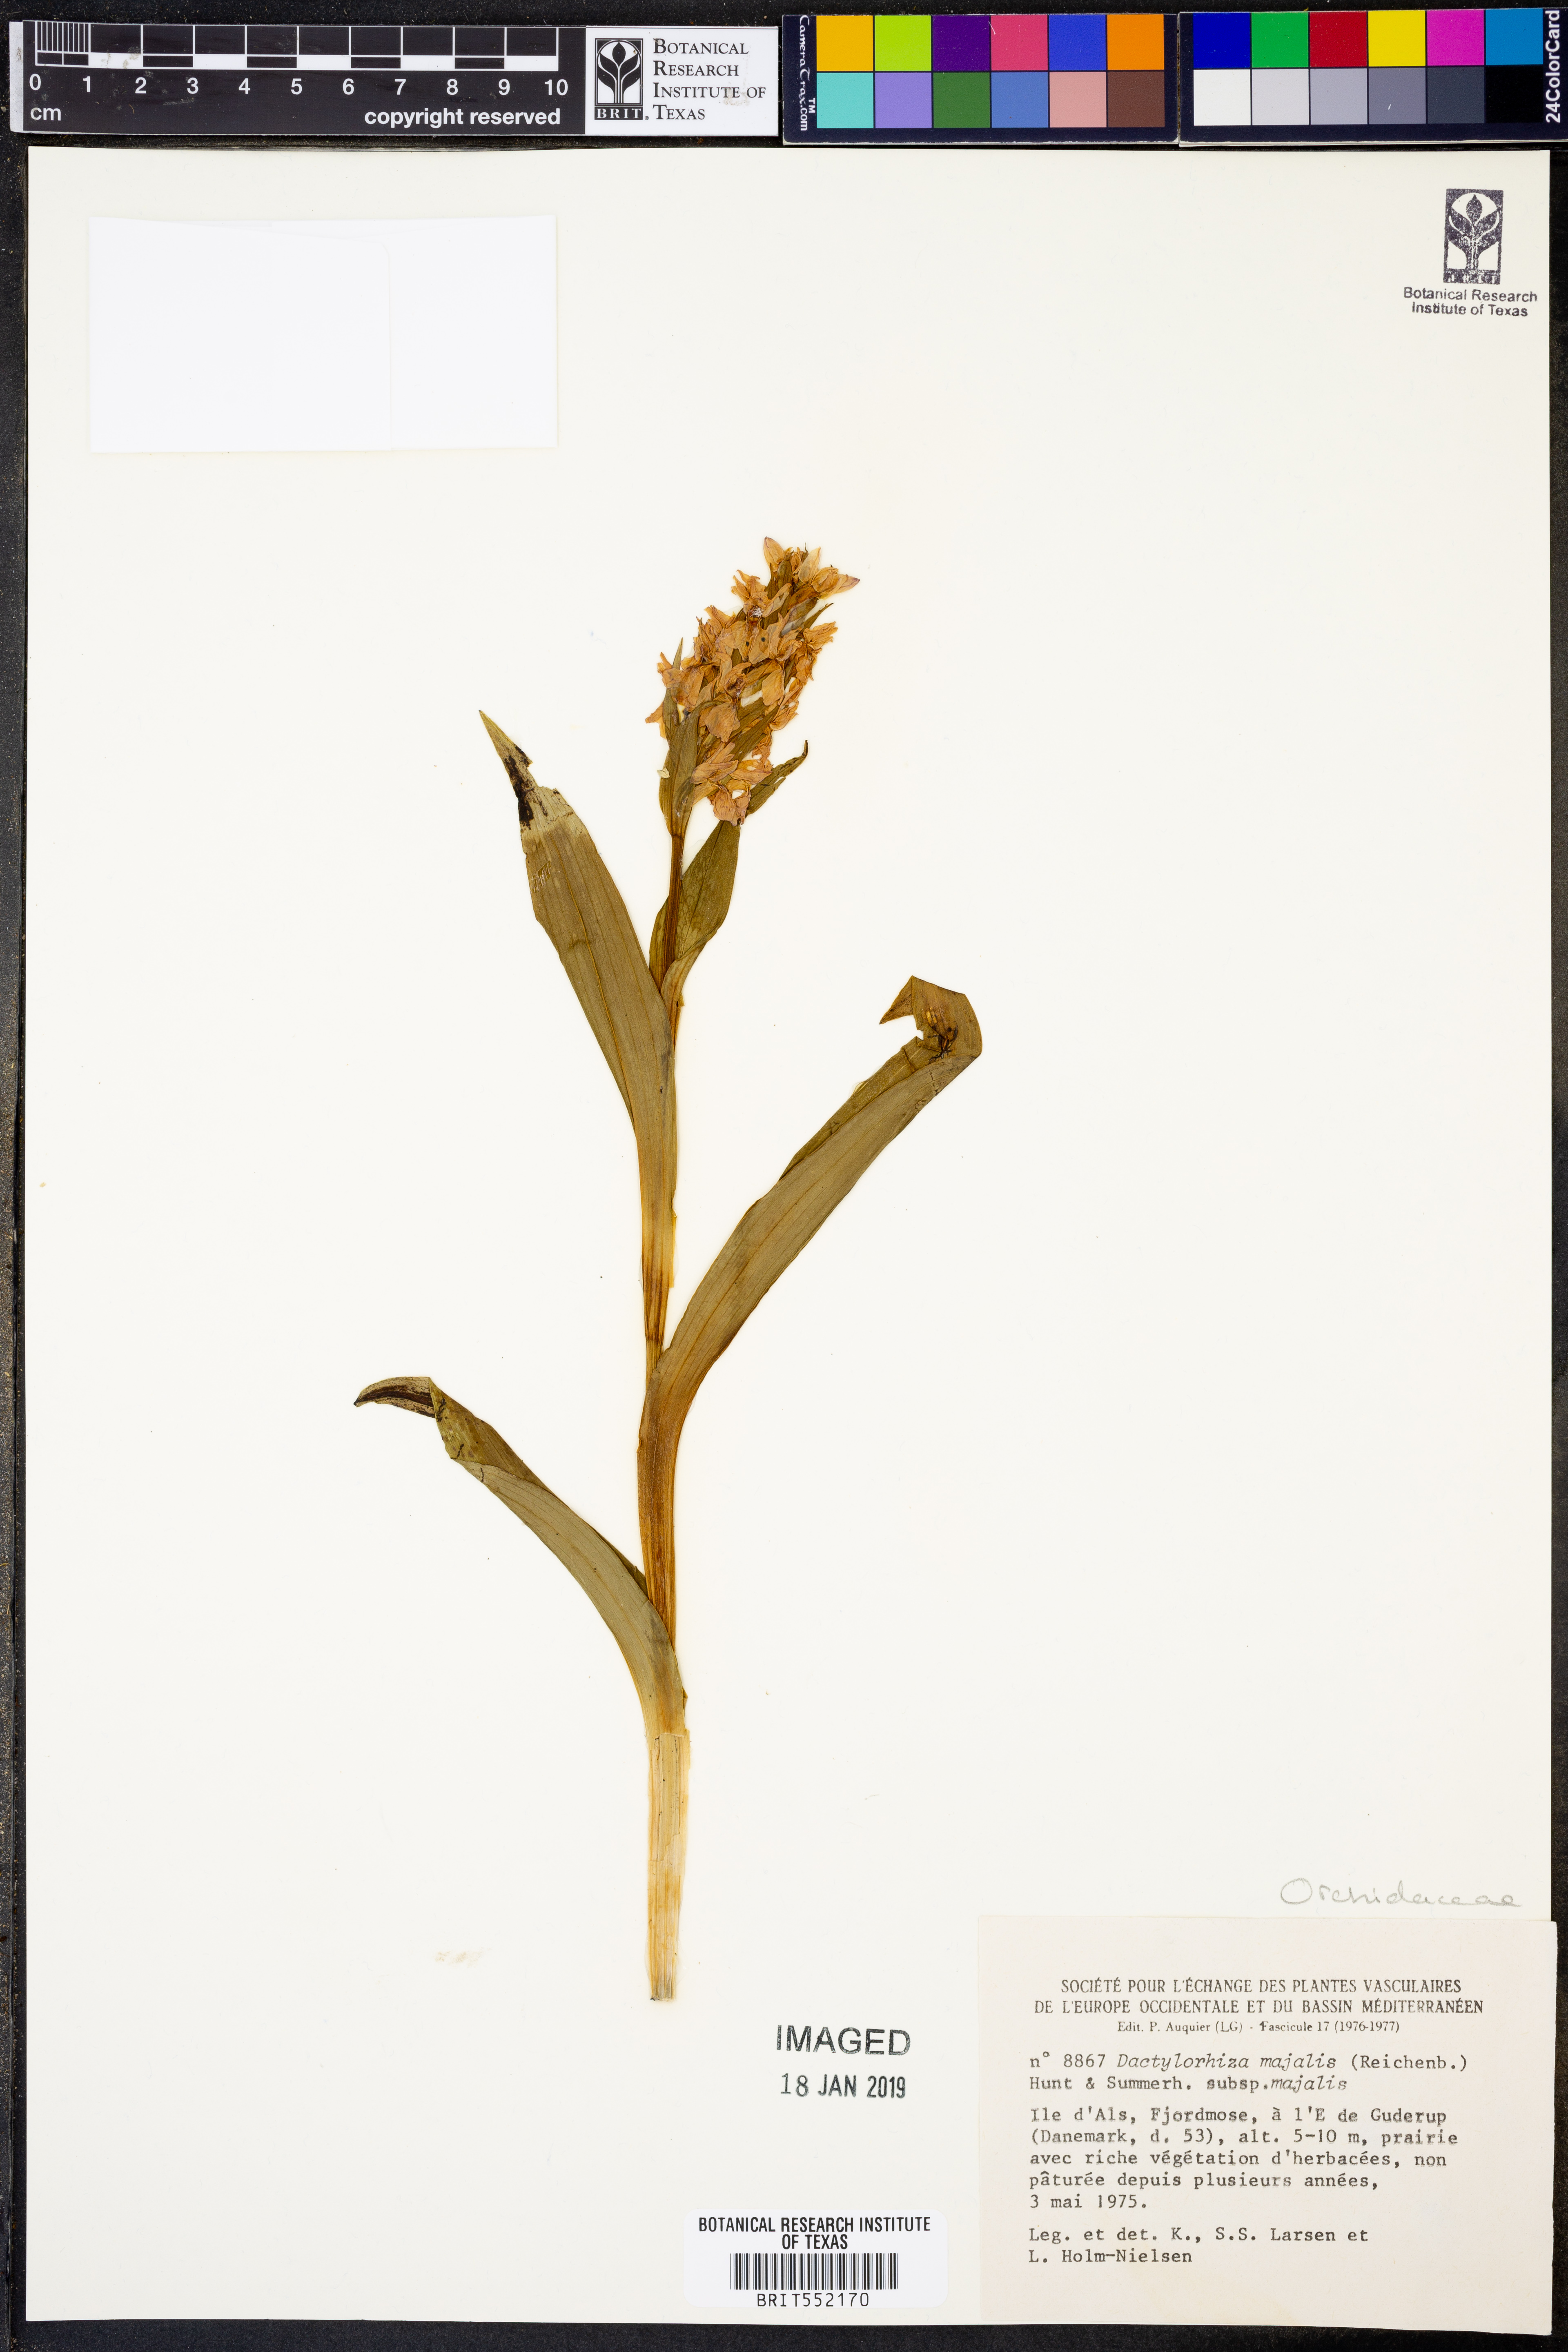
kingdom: Plantae
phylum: Tracheophyta
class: Liliopsida
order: Asparagales
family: Orchidaceae
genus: Dactylorhiza
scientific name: Dactylorhiza majalis
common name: Marsh orchid
